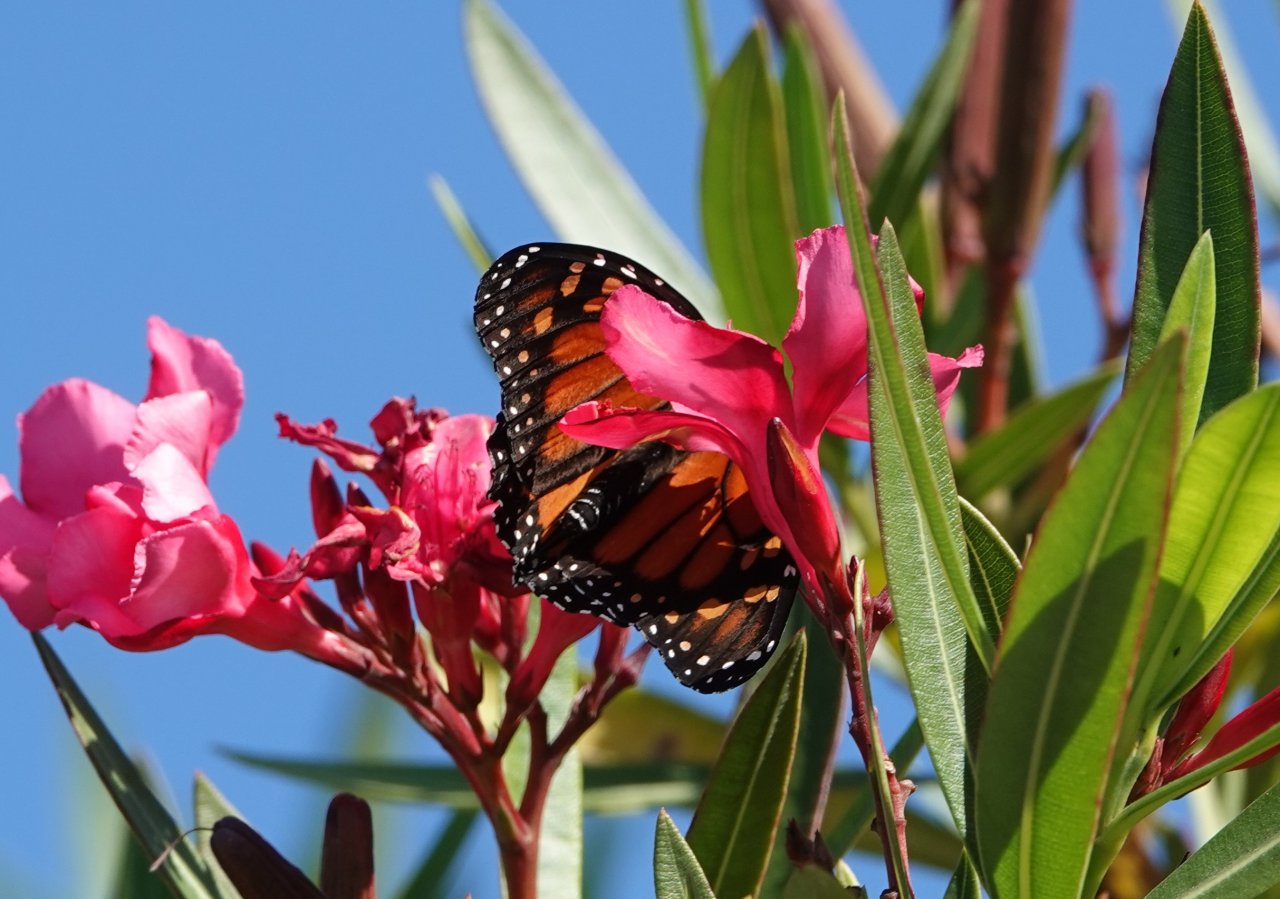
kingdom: Animalia
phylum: Arthropoda
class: Insecta
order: Lepidoptera
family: Nymphalidae
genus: Danaus
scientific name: Danaus plexippus
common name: Monarch
